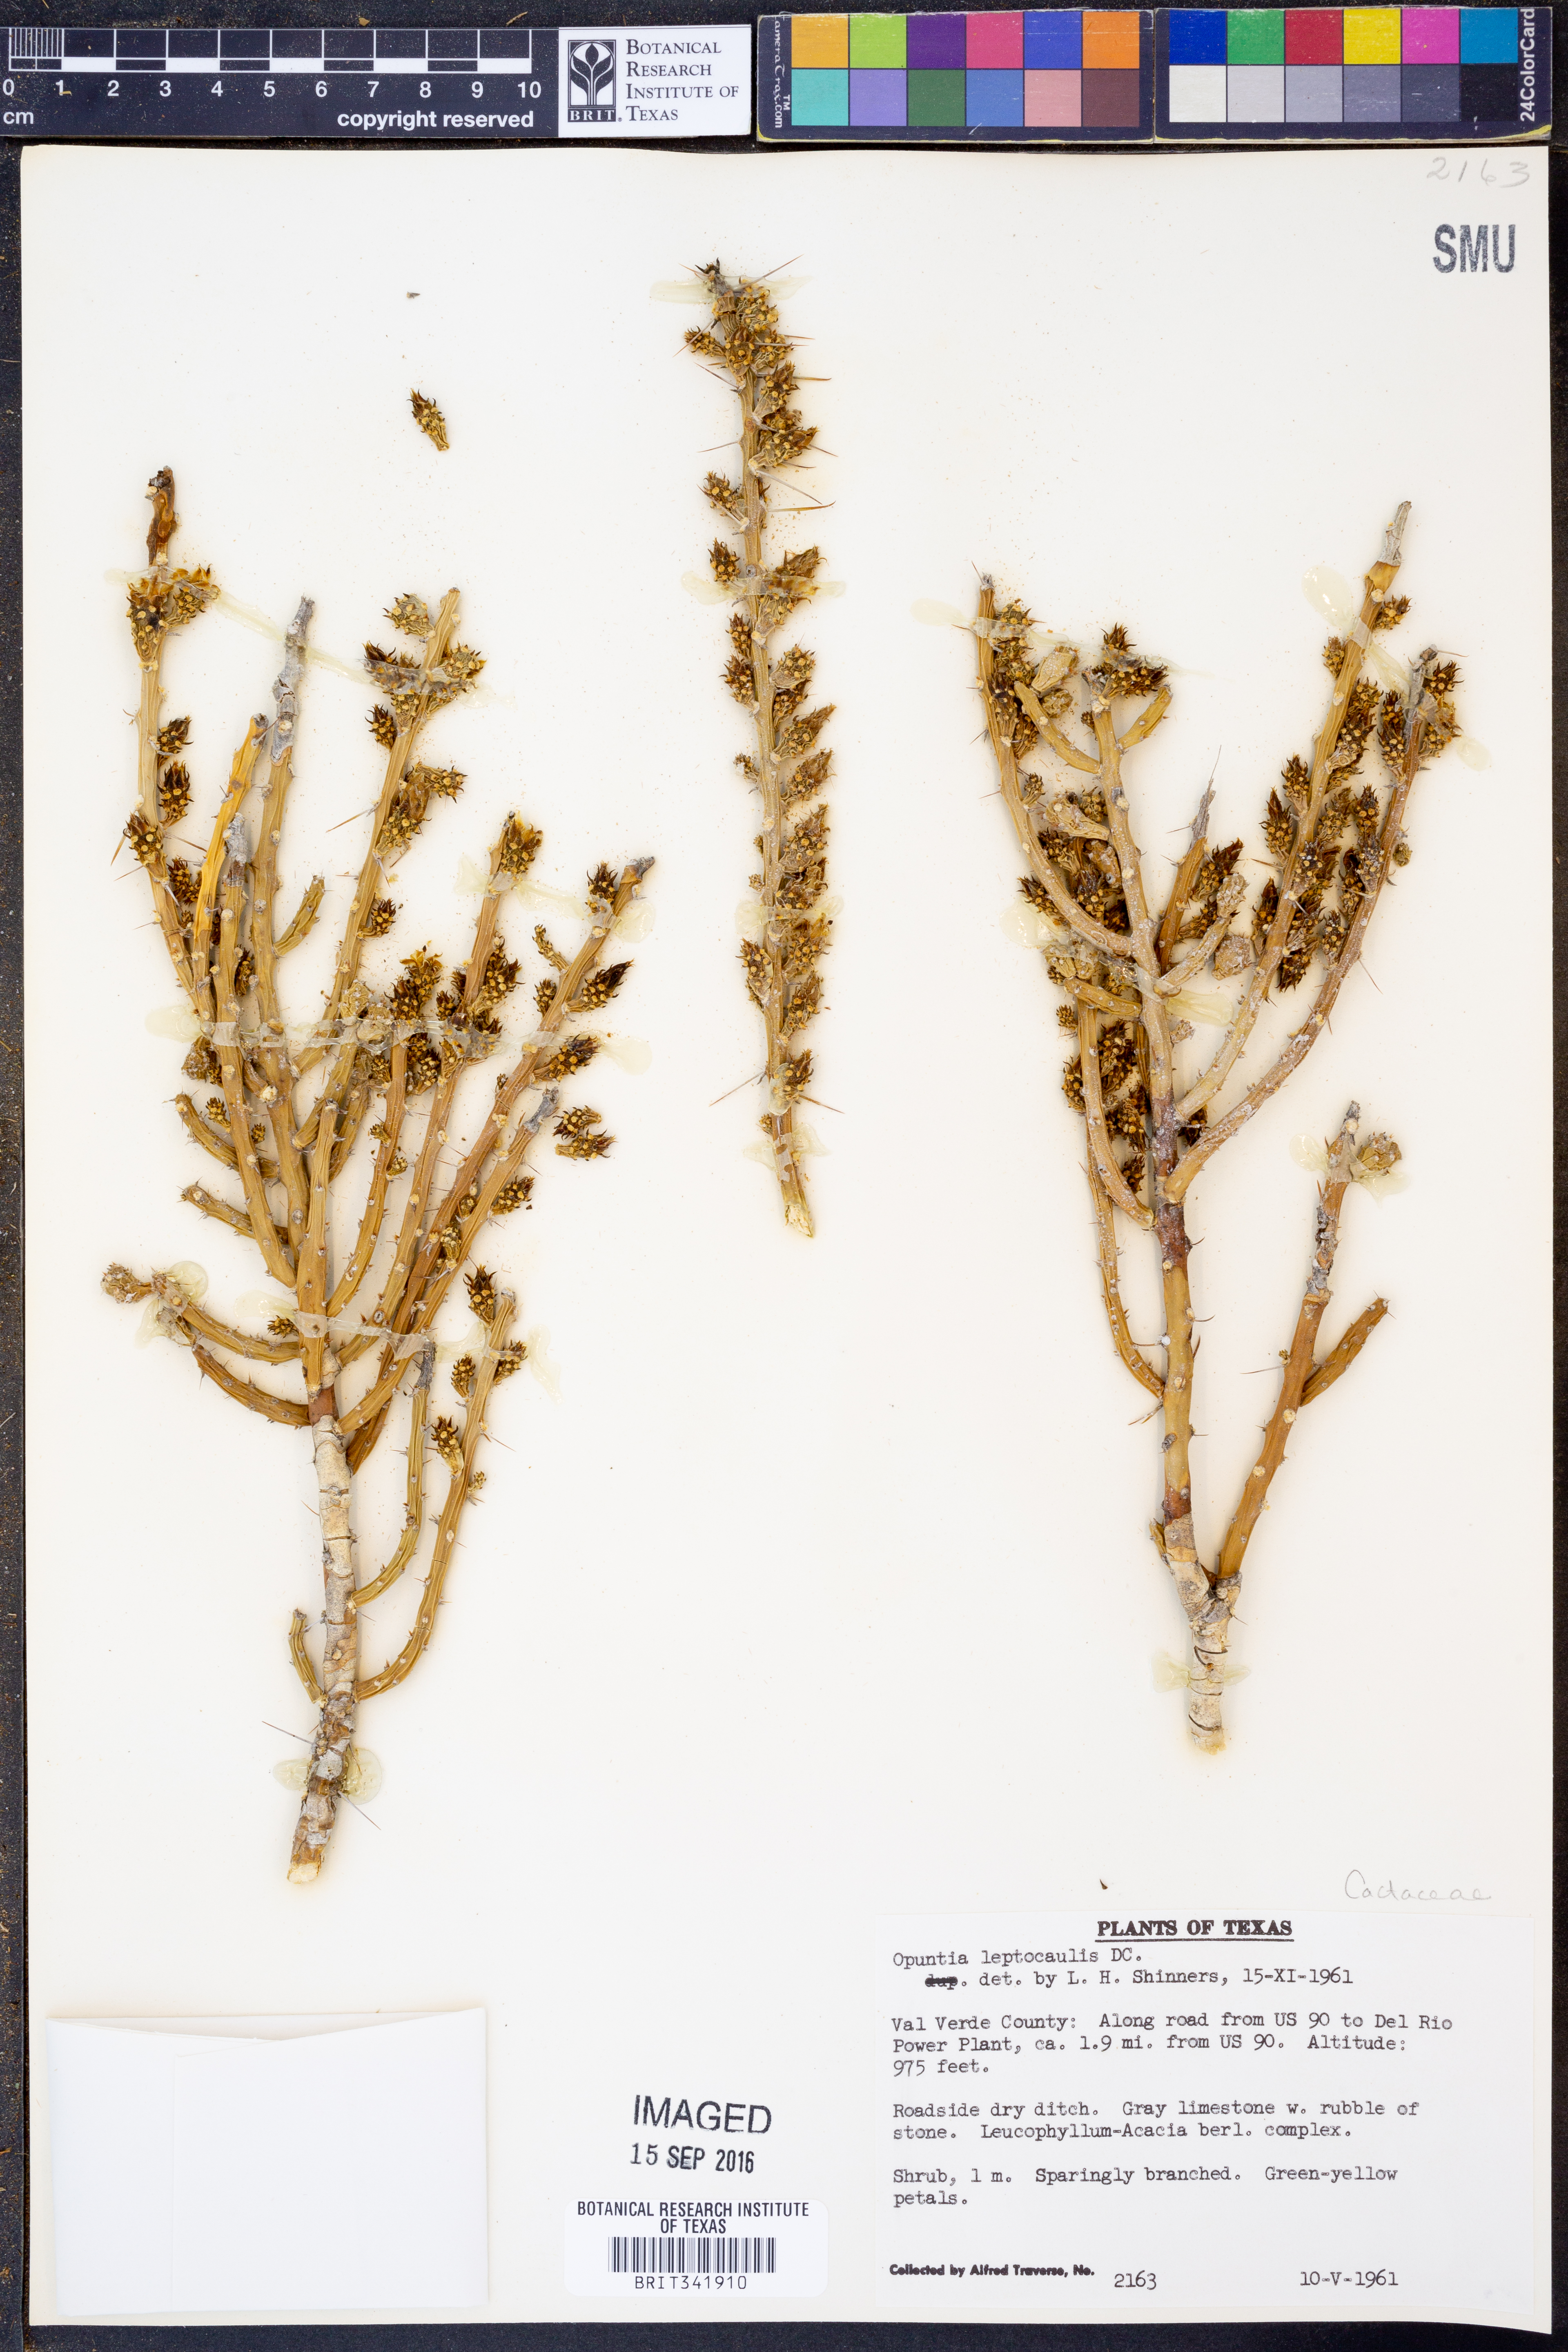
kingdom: Plantae
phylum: Tracheophyta
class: Magnoliopsida
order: Caryophyllales
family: Cactaceae
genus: Cylindropuntia
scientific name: Cylindropuntia leptocaulis
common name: Christmas cactus
